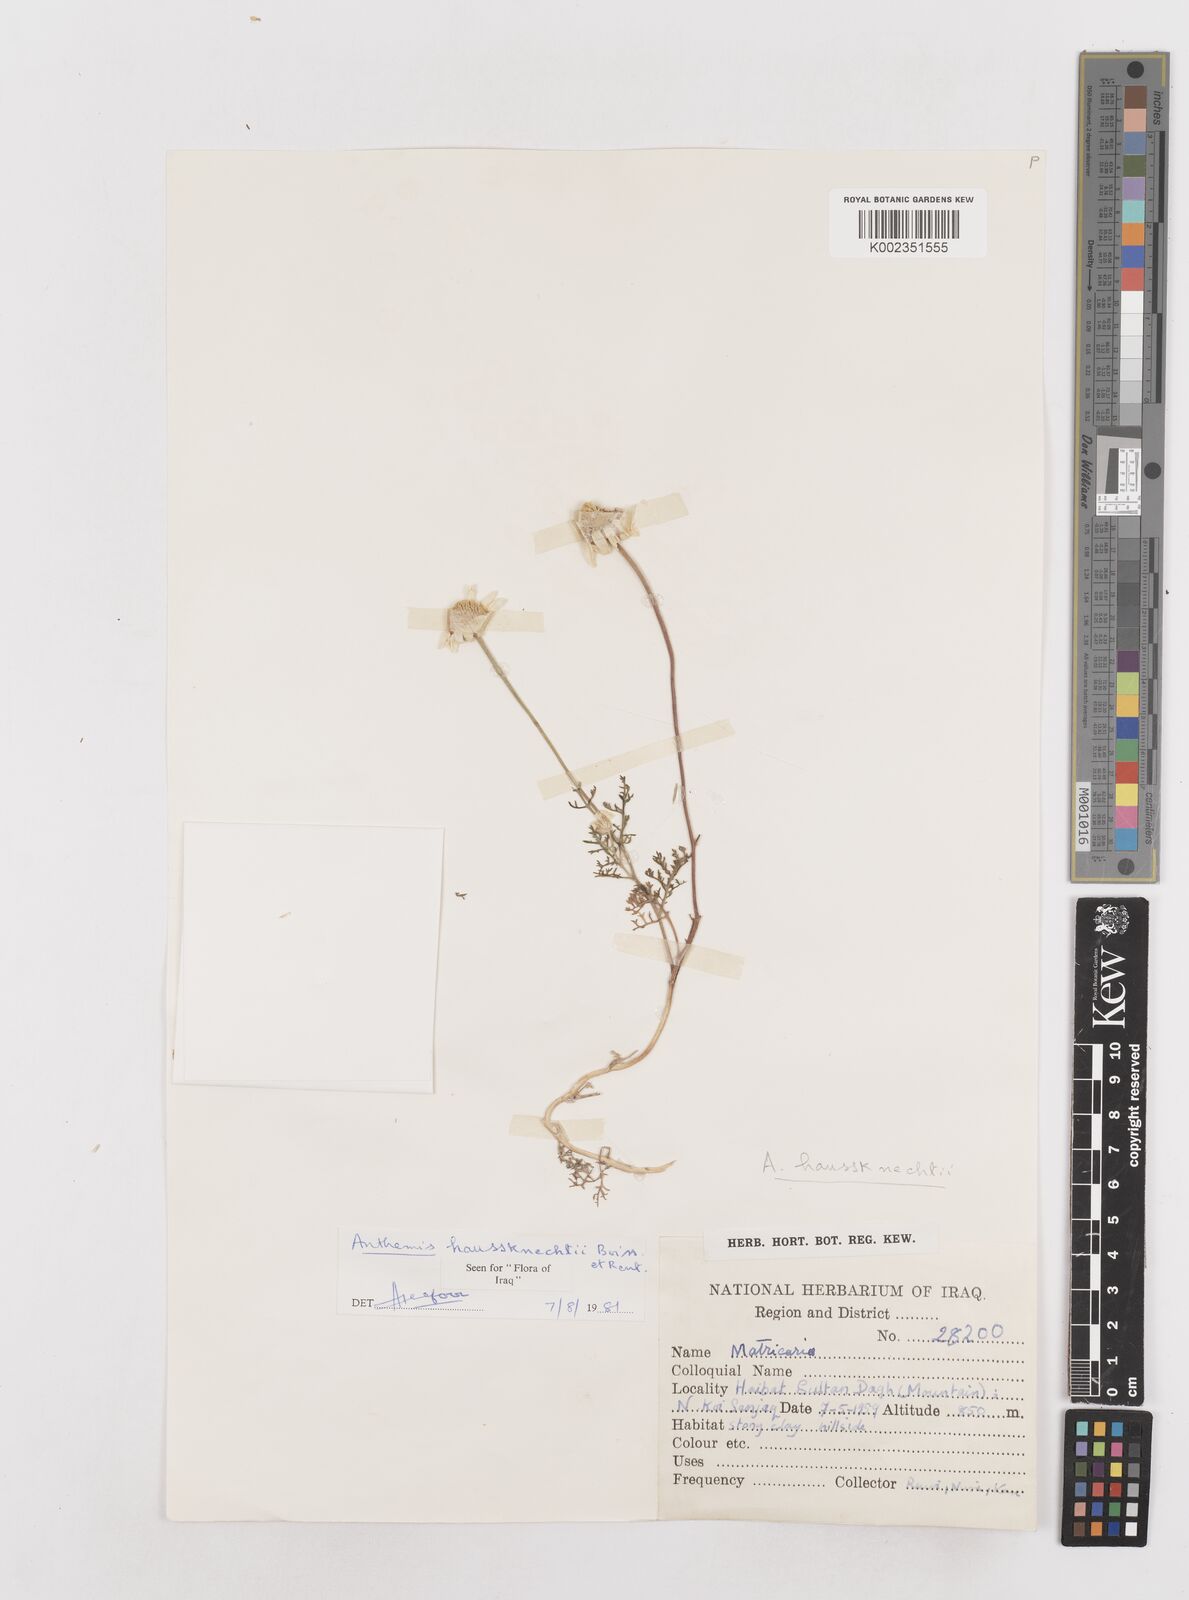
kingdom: Plantae
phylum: Tracheophyta
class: Magnoliopsida
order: Asterales
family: Asteraceae
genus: Anthemis
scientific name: Anthemis haussknechtii
